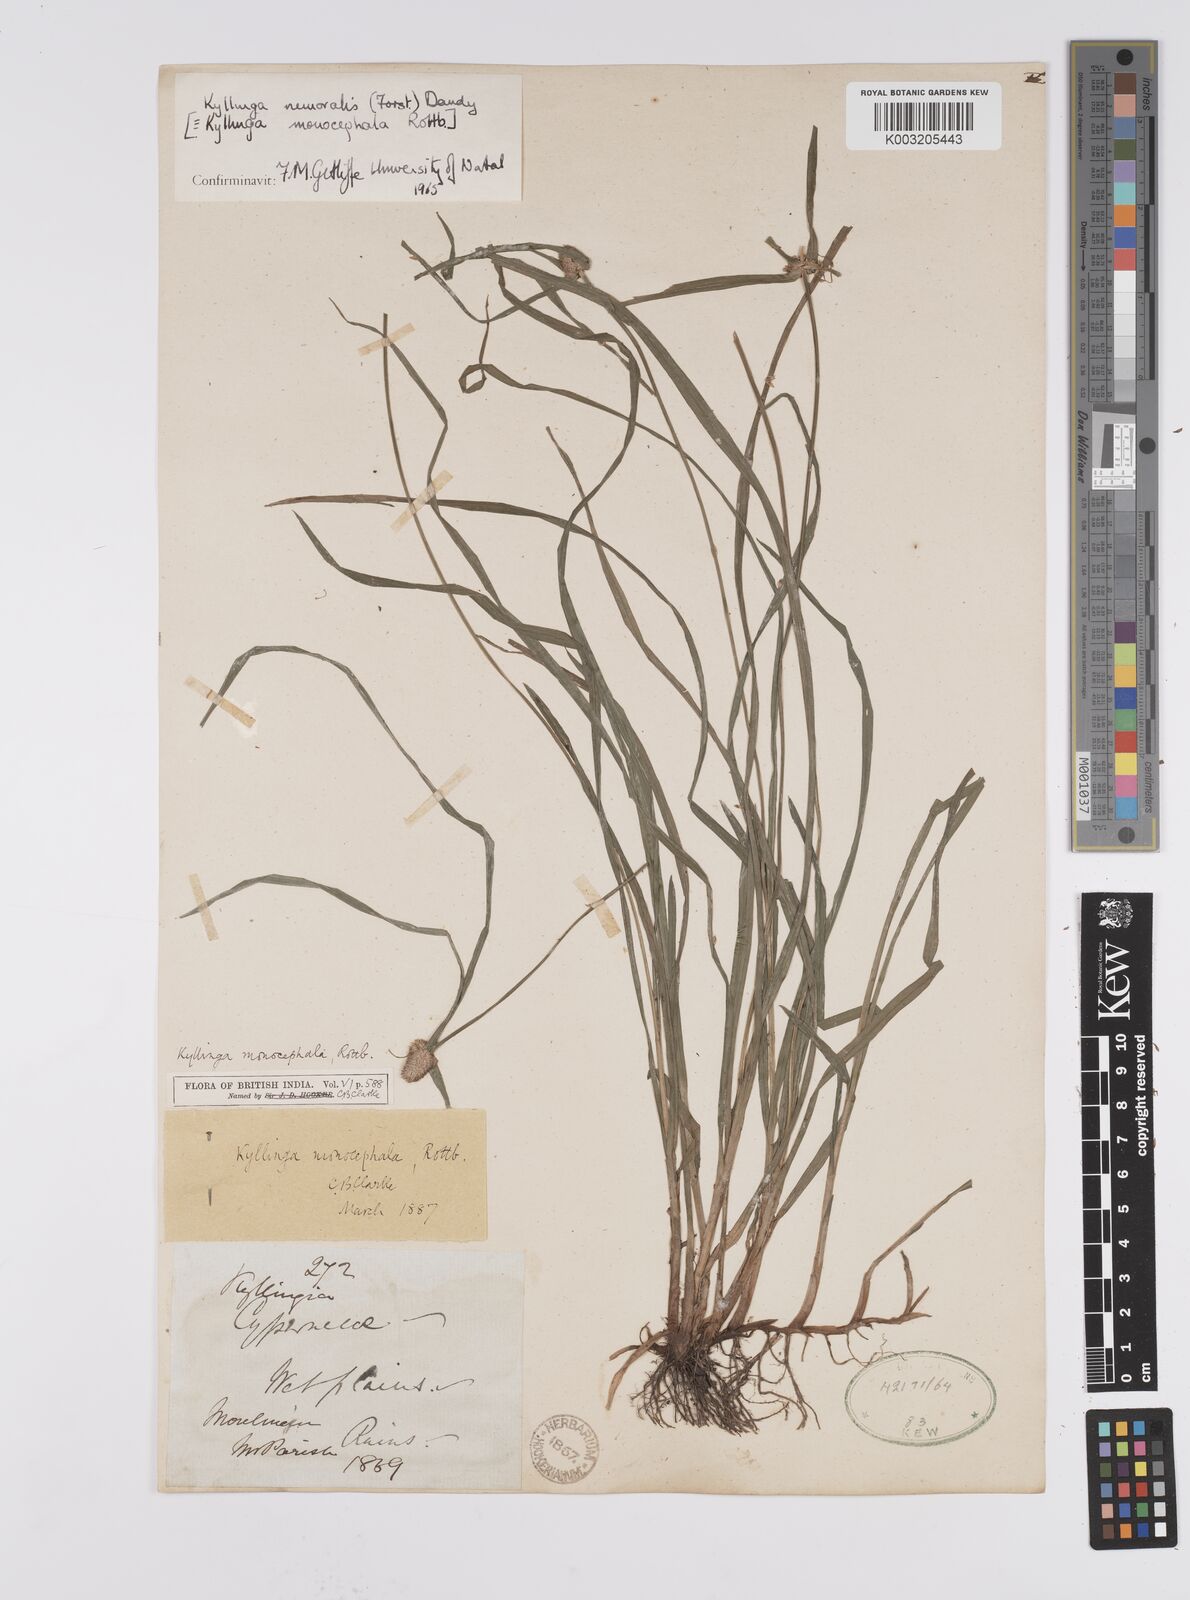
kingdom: Plantae
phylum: Tracheophyta
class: Liliopsida
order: Poales
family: Cyperaceae
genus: Cyperus
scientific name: Cyperus nemoralis
